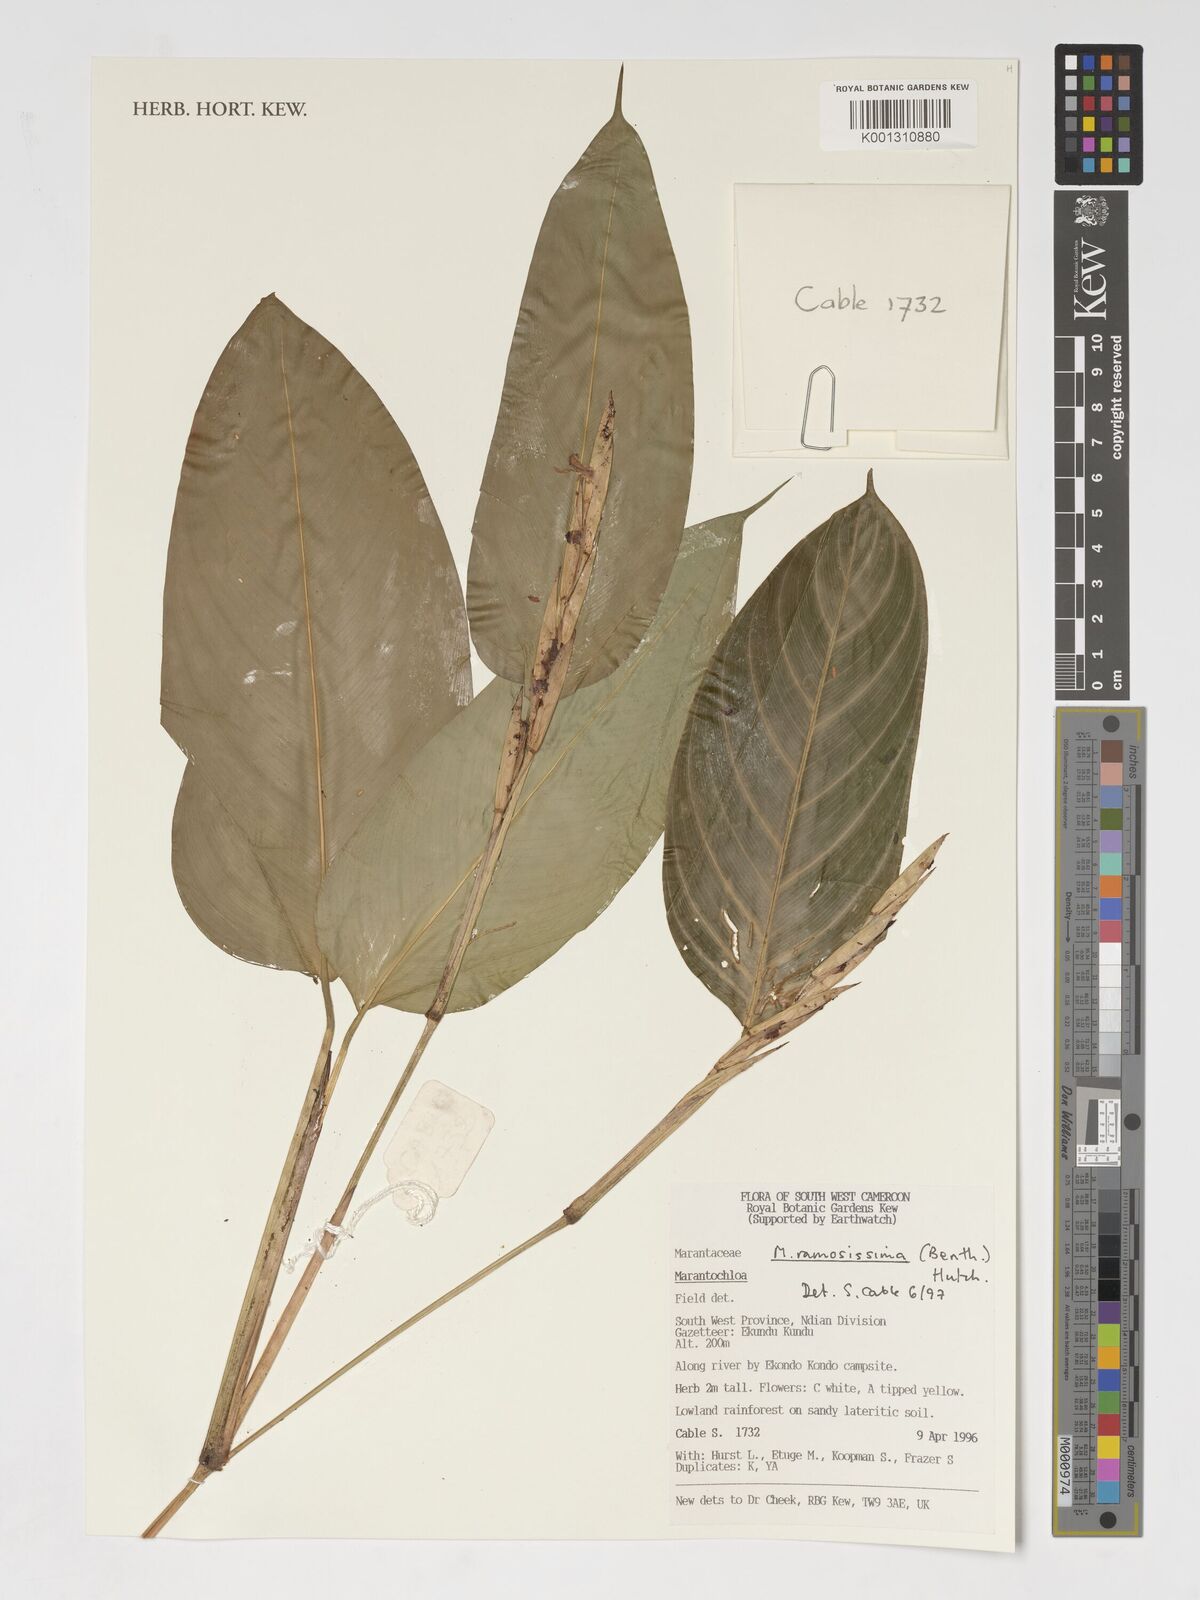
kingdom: Plantae
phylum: Tracheophyta
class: Liliopsida
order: Zingiberales
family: Marantaceae
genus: Marantochloa
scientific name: Marantochloa ramosissima
